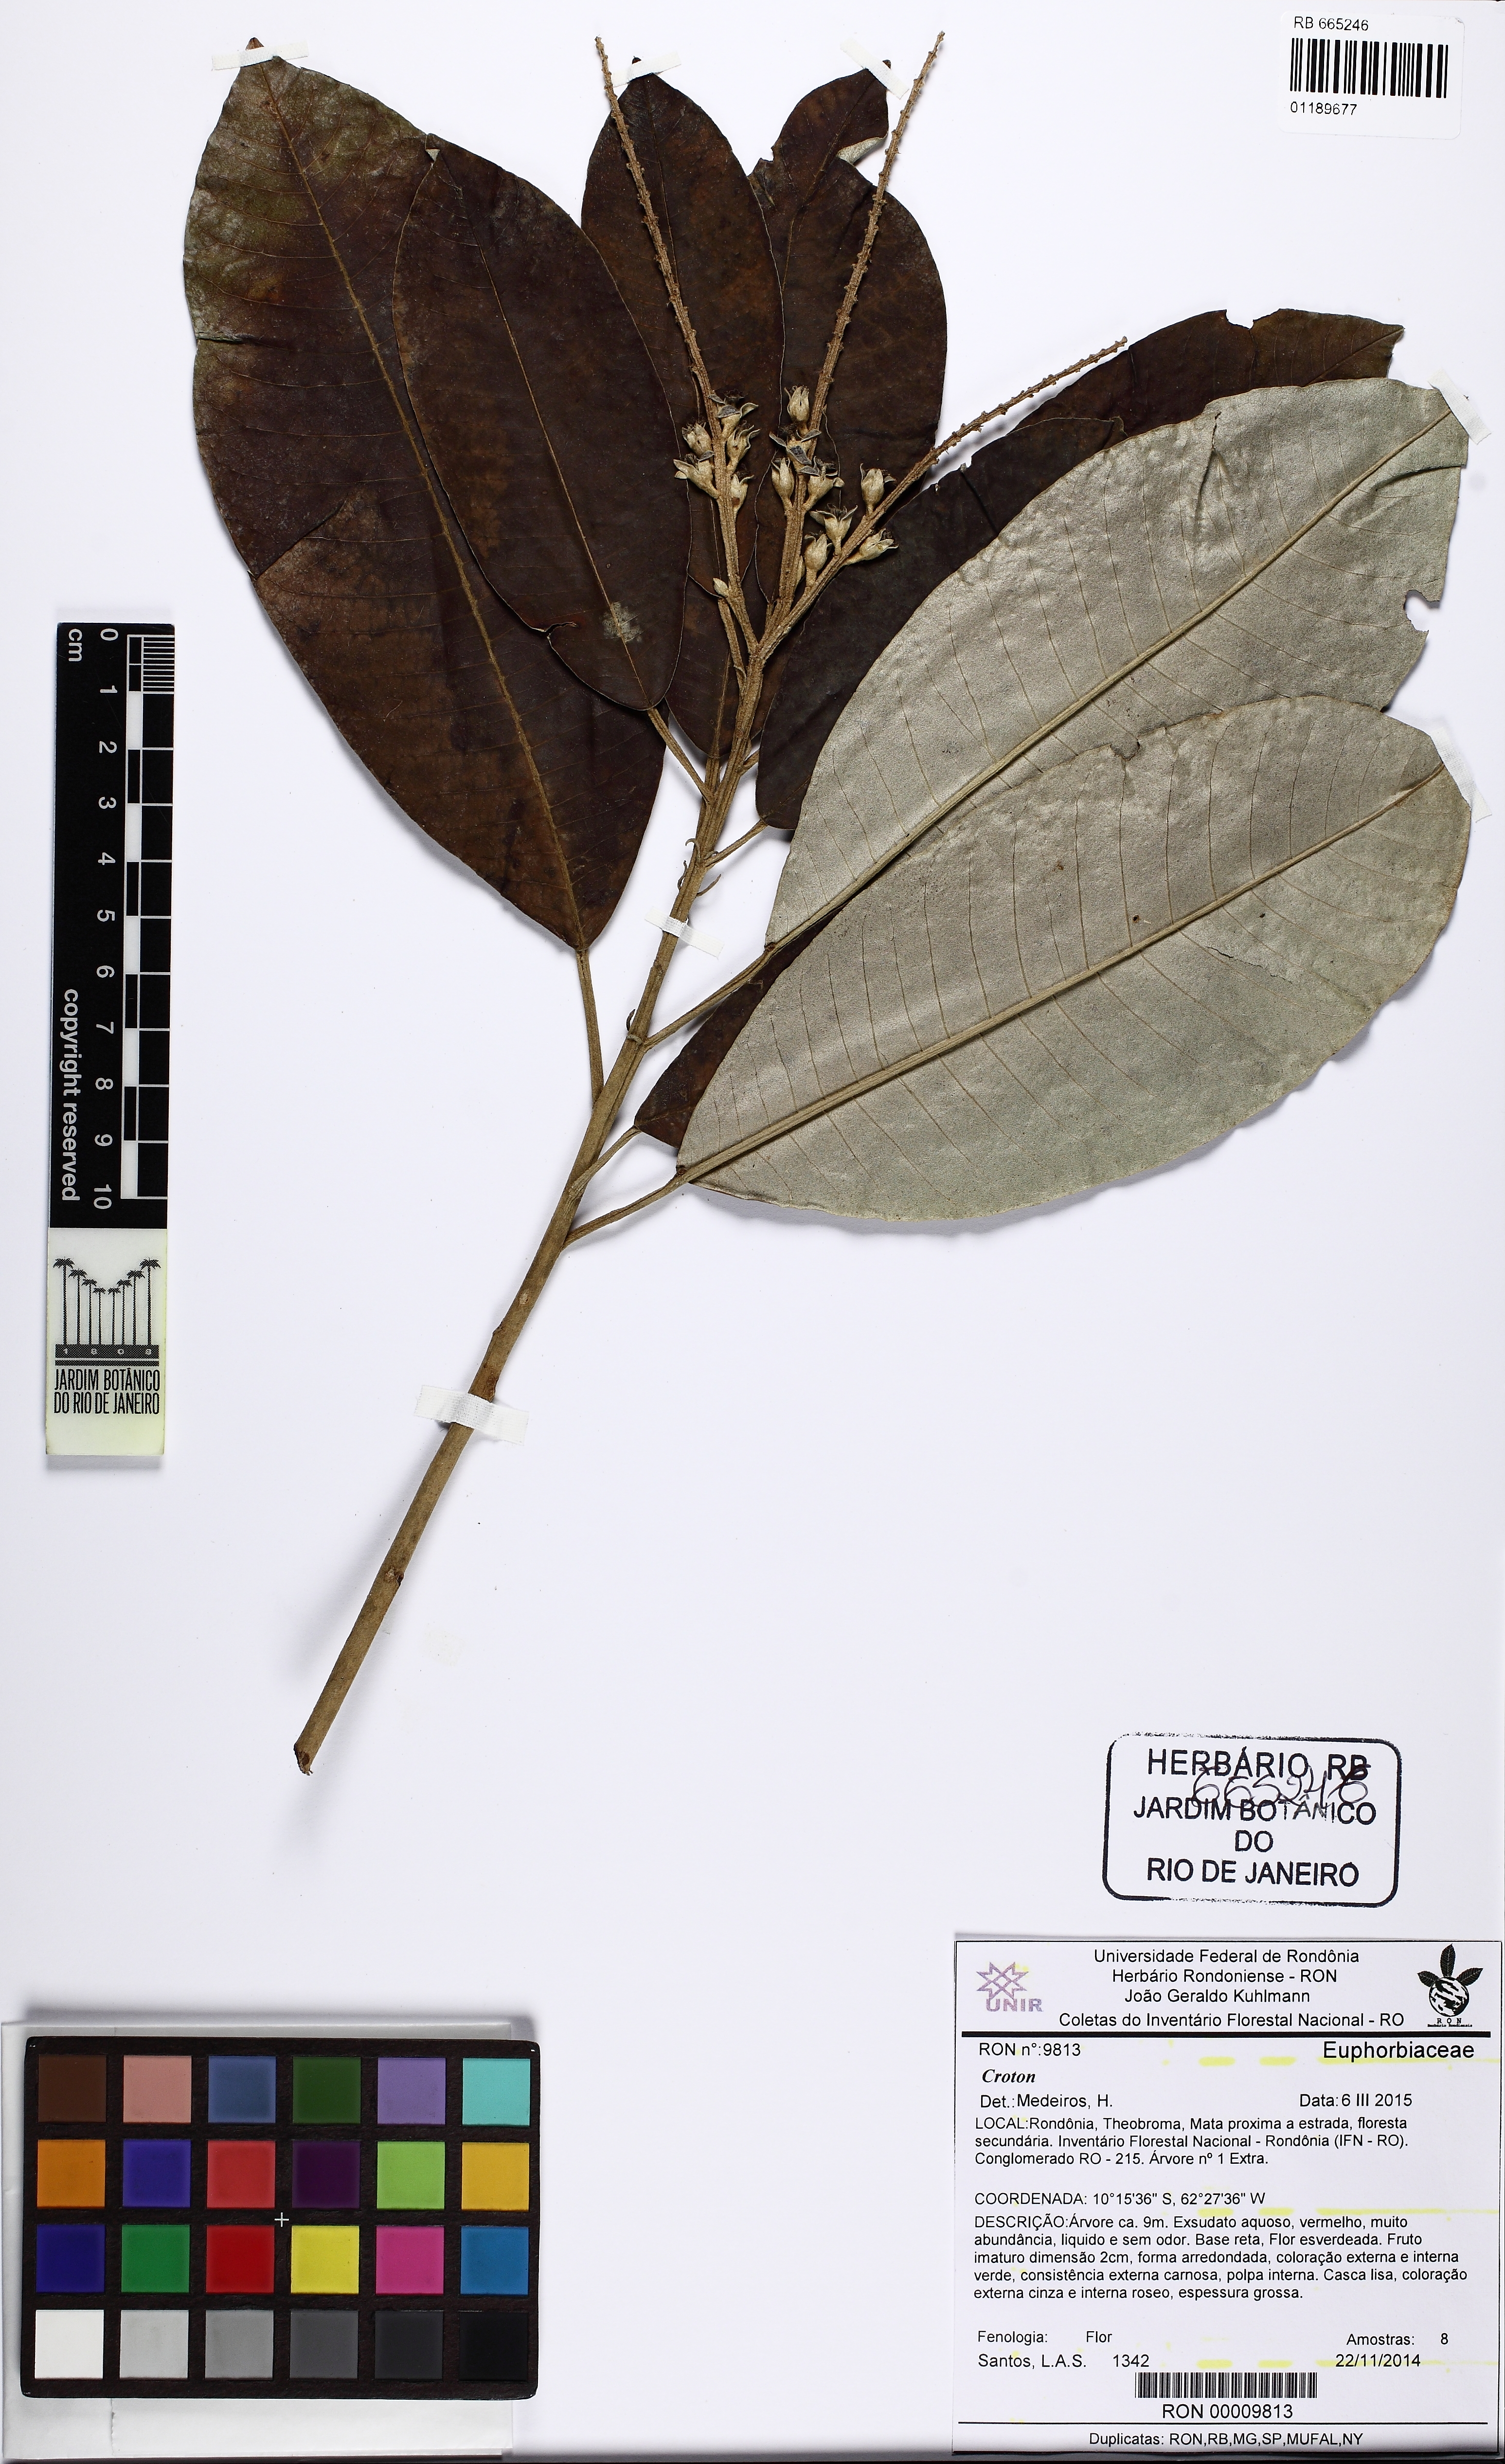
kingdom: Plantae
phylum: Tracheophyta
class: Magnoliopsida
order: Malpighiales
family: Euphorbiaceae
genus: Croton
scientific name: Croton matourensis
